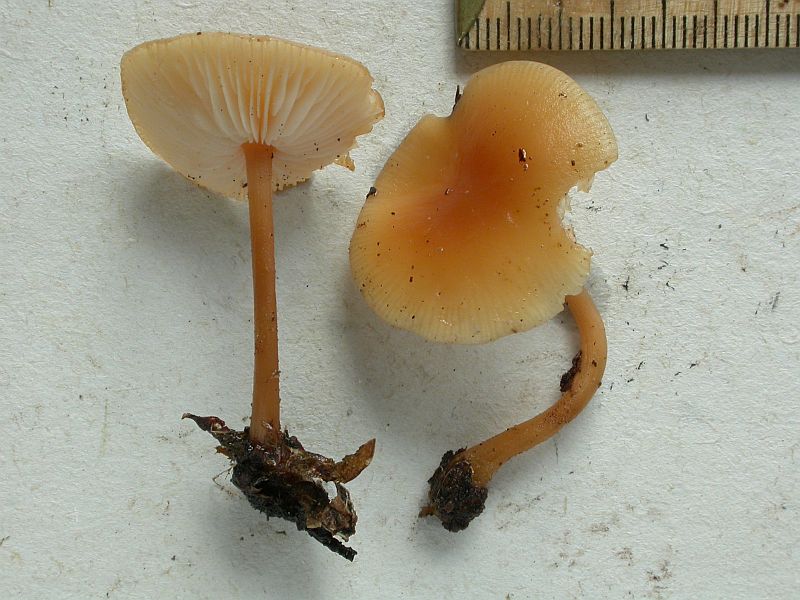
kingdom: Fungi
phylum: Basidiomycota
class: Agaricomycetes
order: Agaricales
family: Omphalotaceae
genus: Gymnopus
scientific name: Gymnopus dryophilus
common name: løv-fladhat
